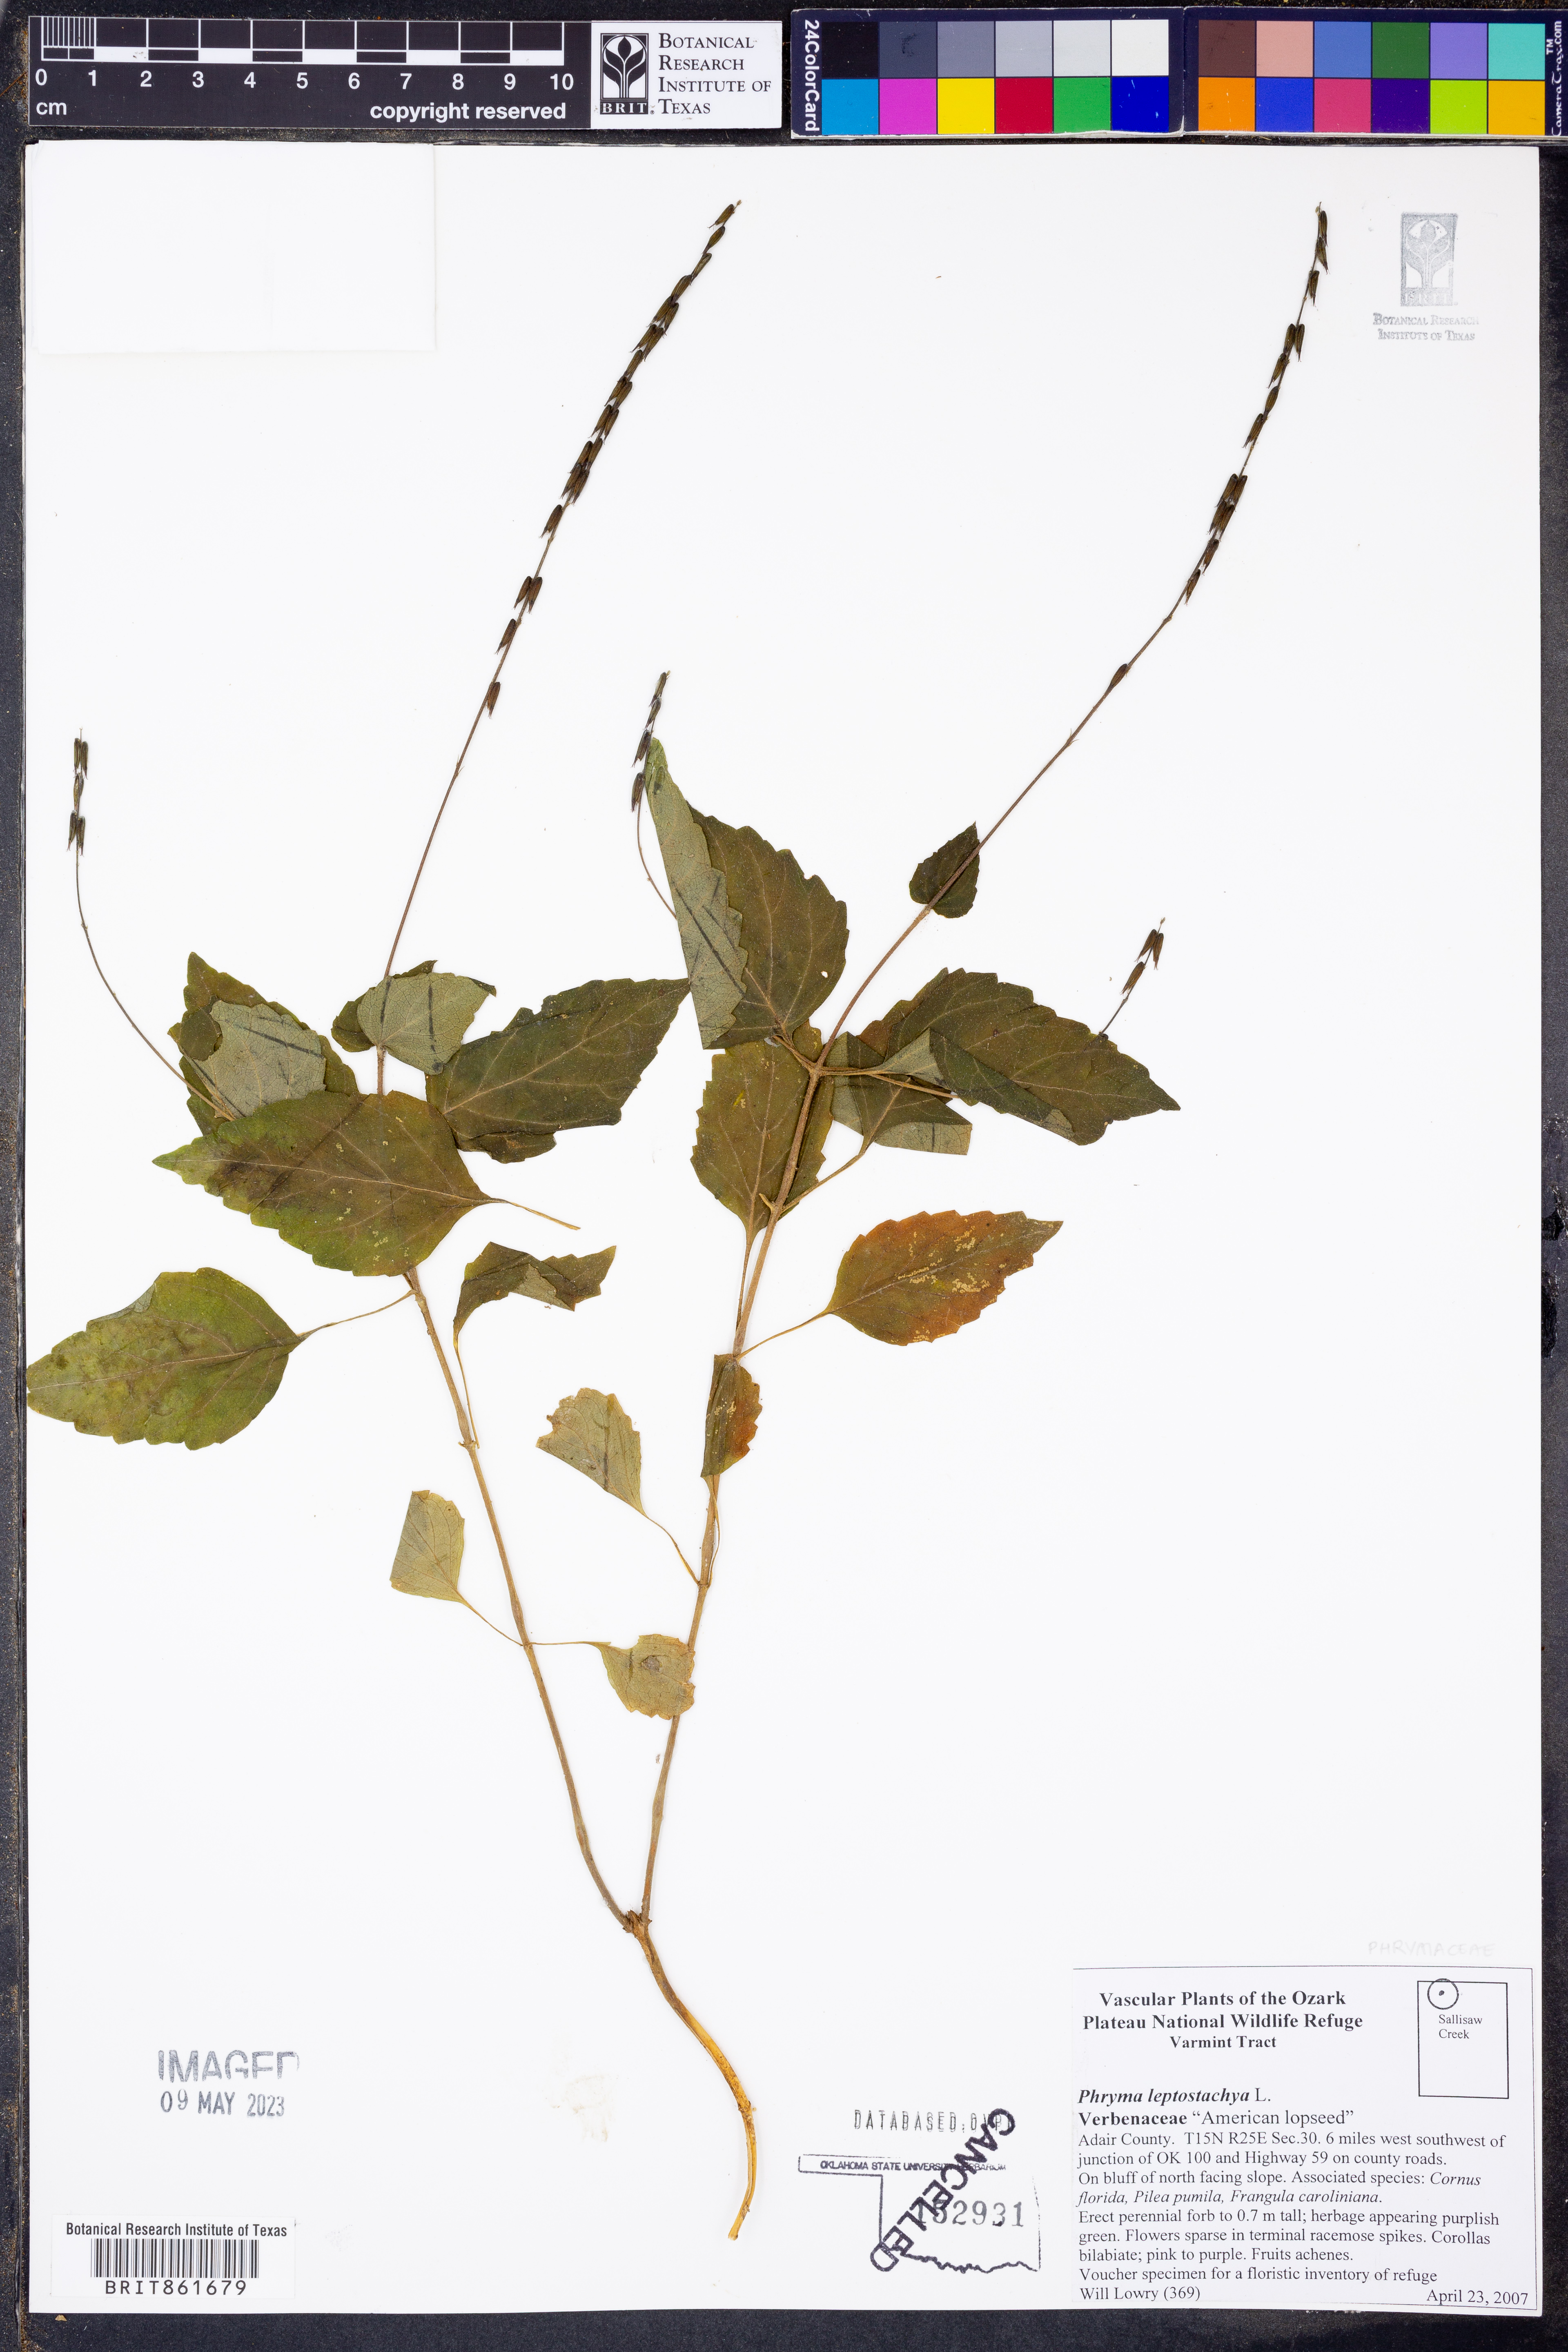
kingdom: Plantae
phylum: Tracheophyta
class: Magnoliopsida
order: Lamiales
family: Phrymaceae
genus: Phryma
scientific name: Phryma leptostachya
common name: American lopseed
